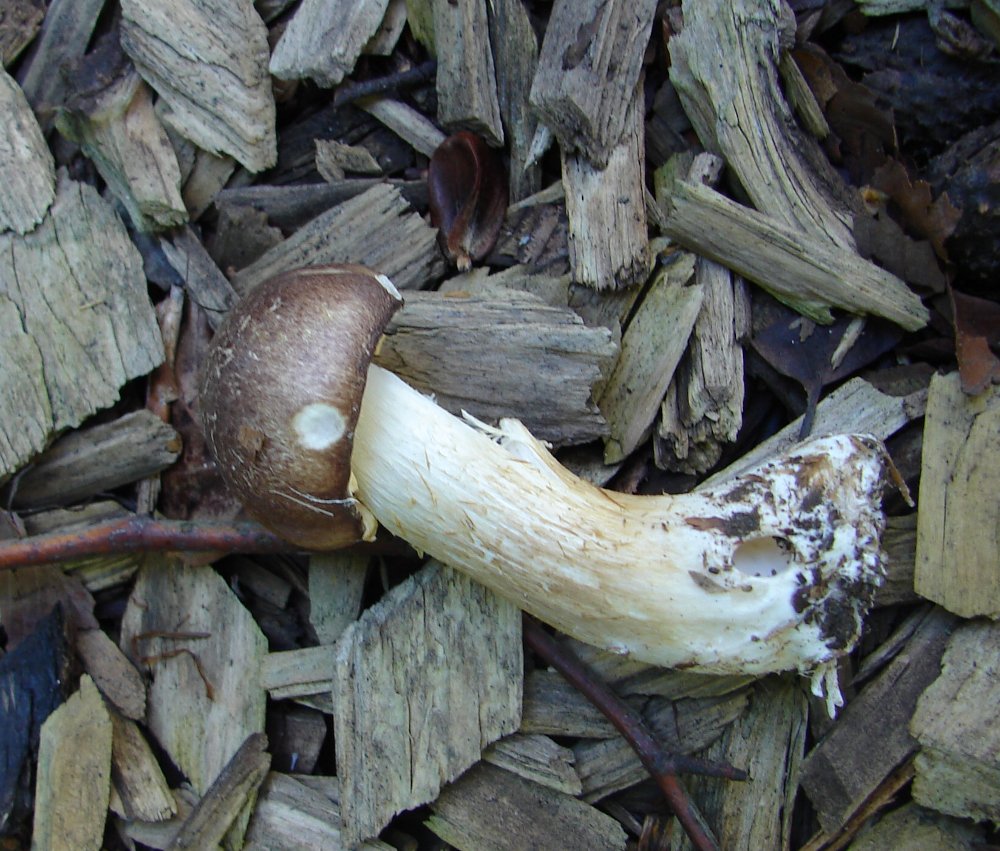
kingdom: Fungi
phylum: Basidiomycota
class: Agaricomycetes
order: Agaricales
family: Strophariaceae
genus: Stropharia
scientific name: Stropharia rugosoannulata
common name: rødbrun bredblad
